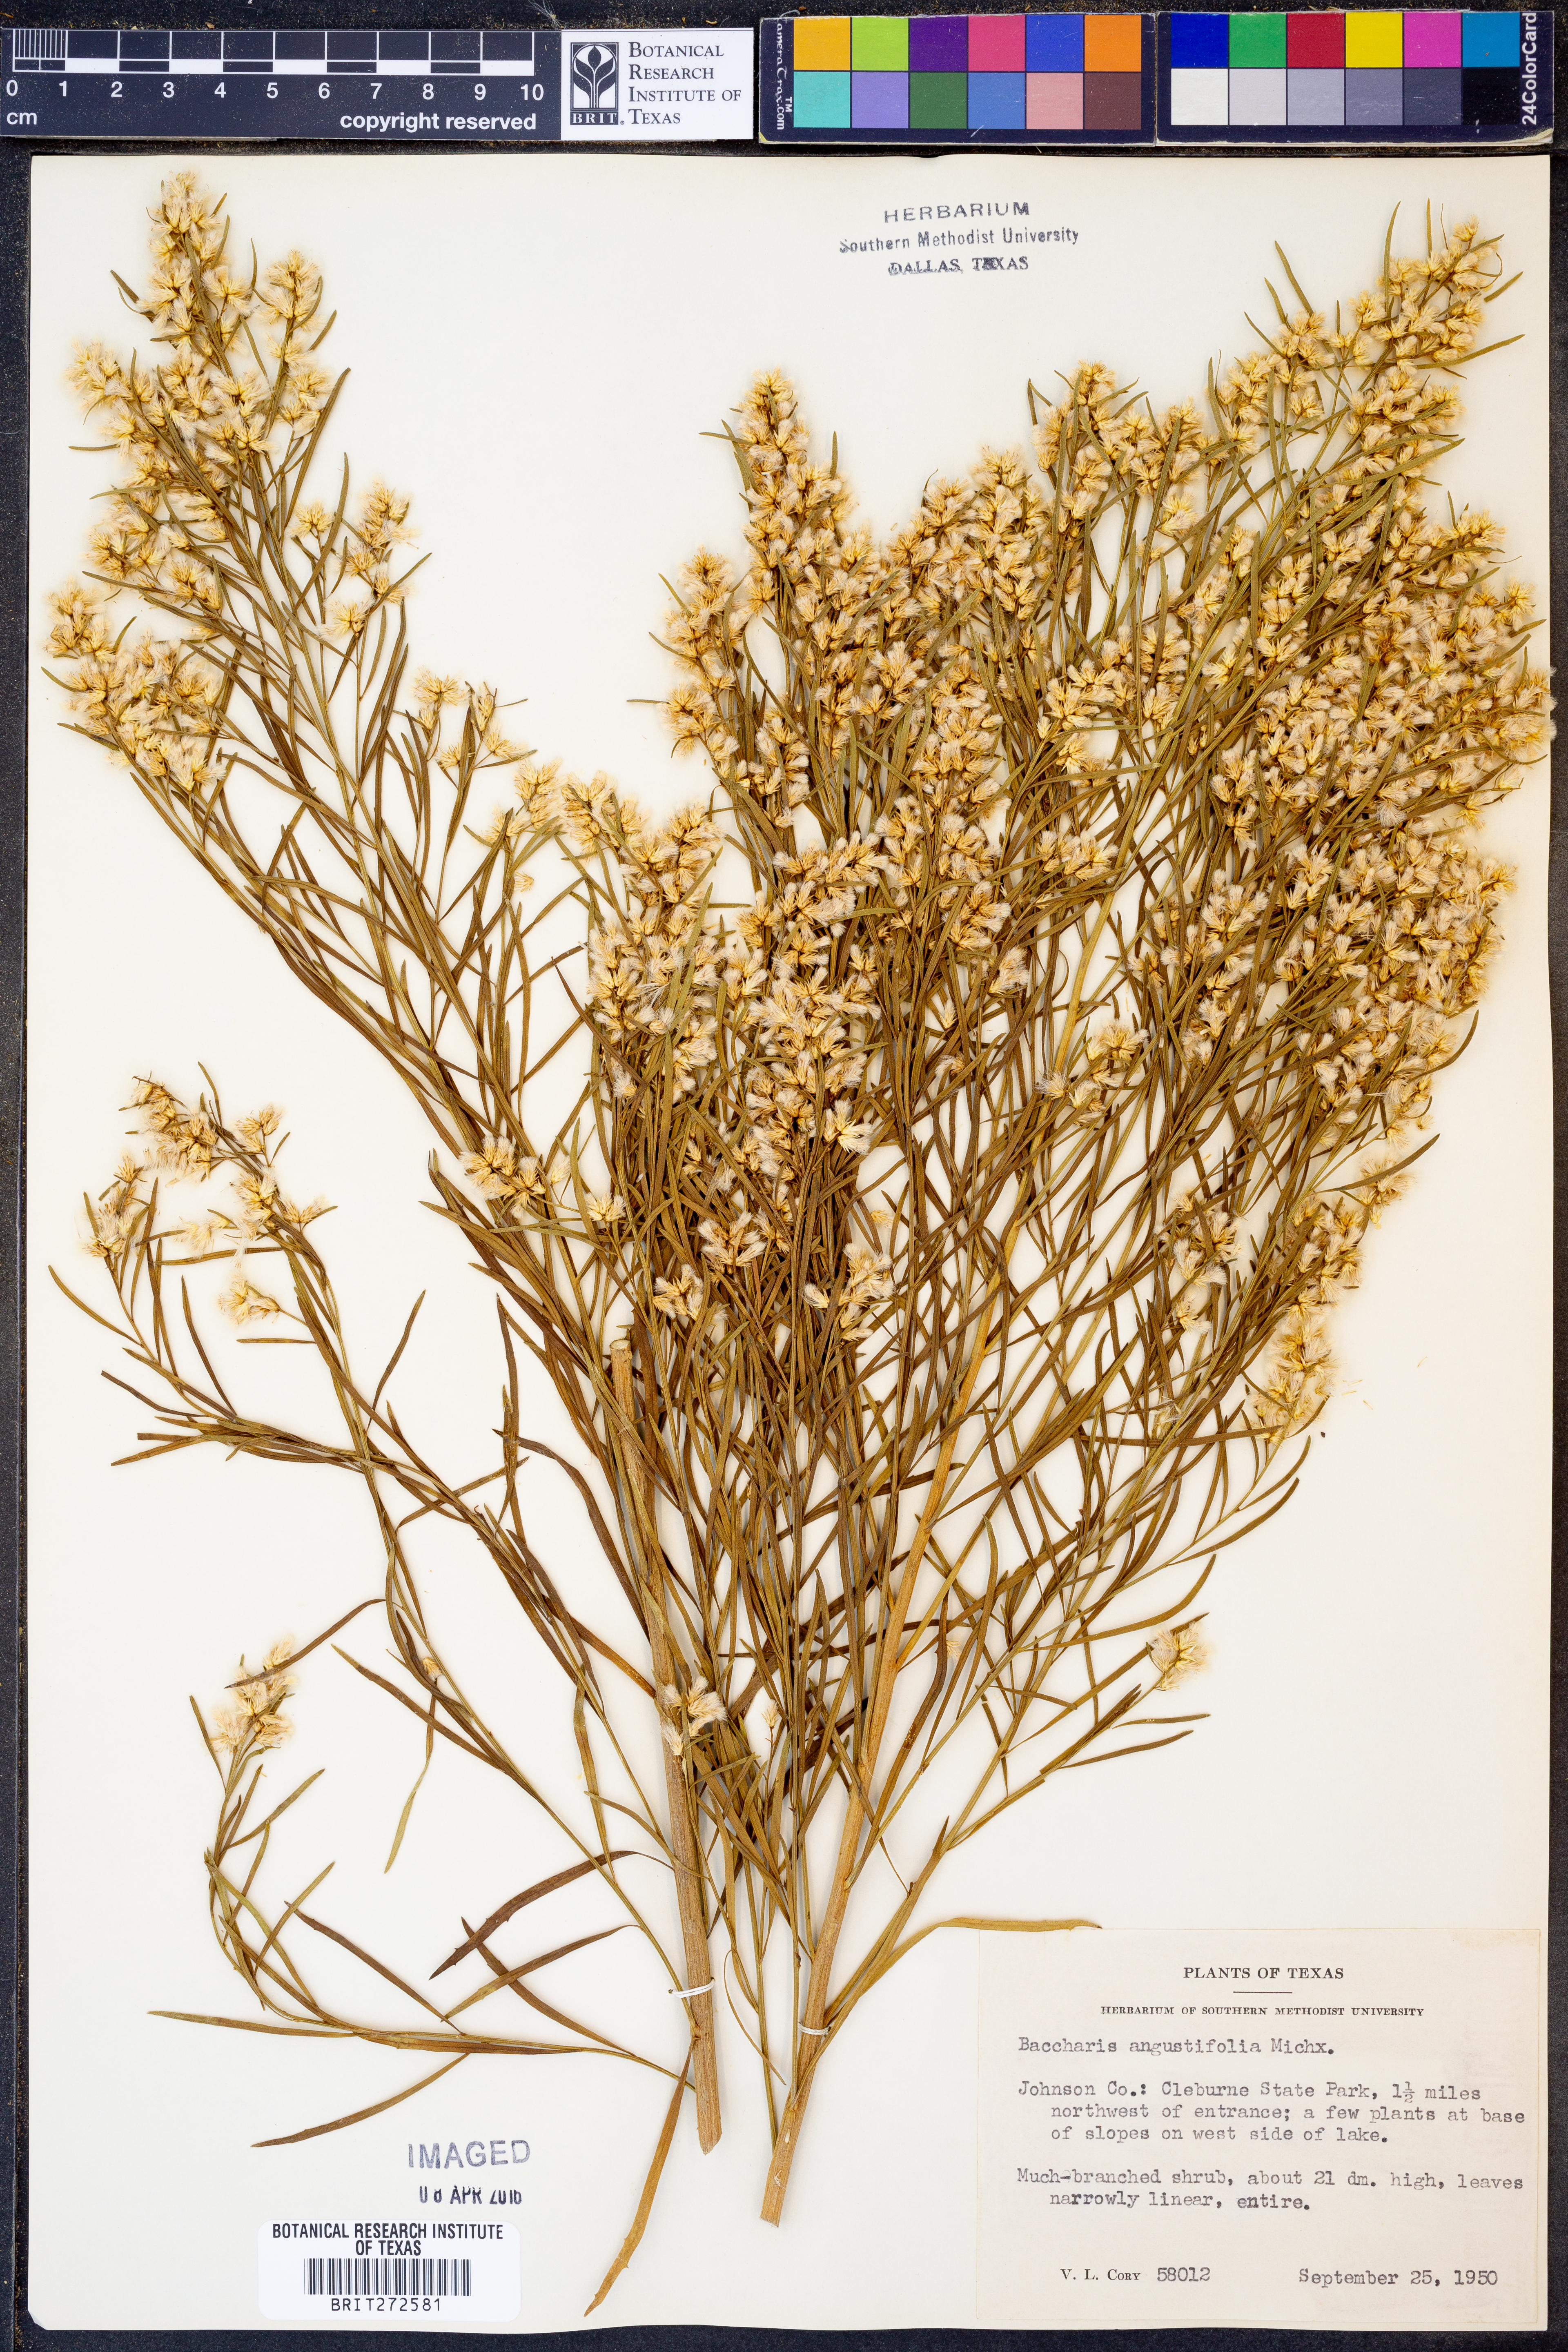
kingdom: Plantae
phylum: Tracheophyta
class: Magnoliopsida
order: Asterales
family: Asteraceae
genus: Baccharis
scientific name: Baccharis angustifolia
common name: Narrow-leaf baccharis
